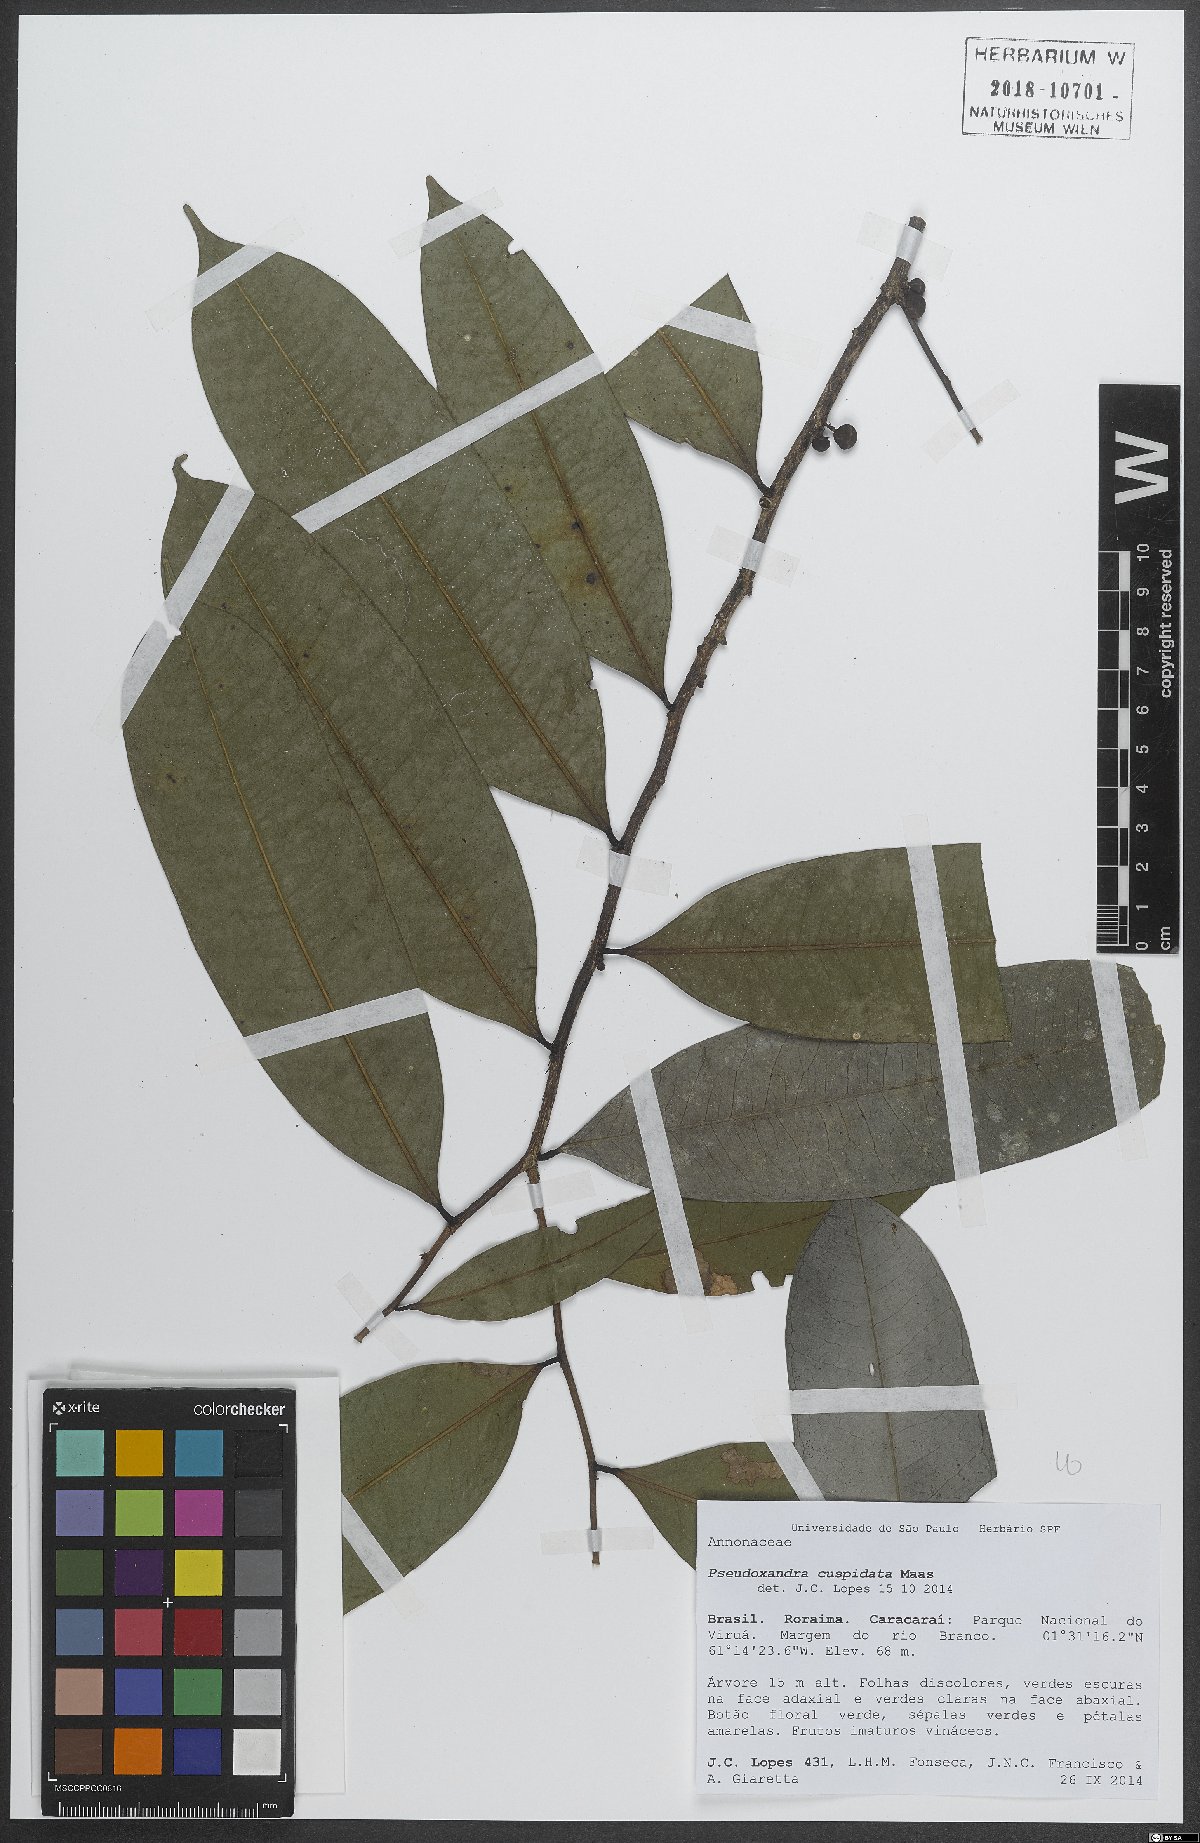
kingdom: Plantae
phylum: Tracheophyta
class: Magnoliopsida
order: Magnoliales
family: Annonaceae
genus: Pseudoxandra
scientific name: Pseudoxandra cuspidata
